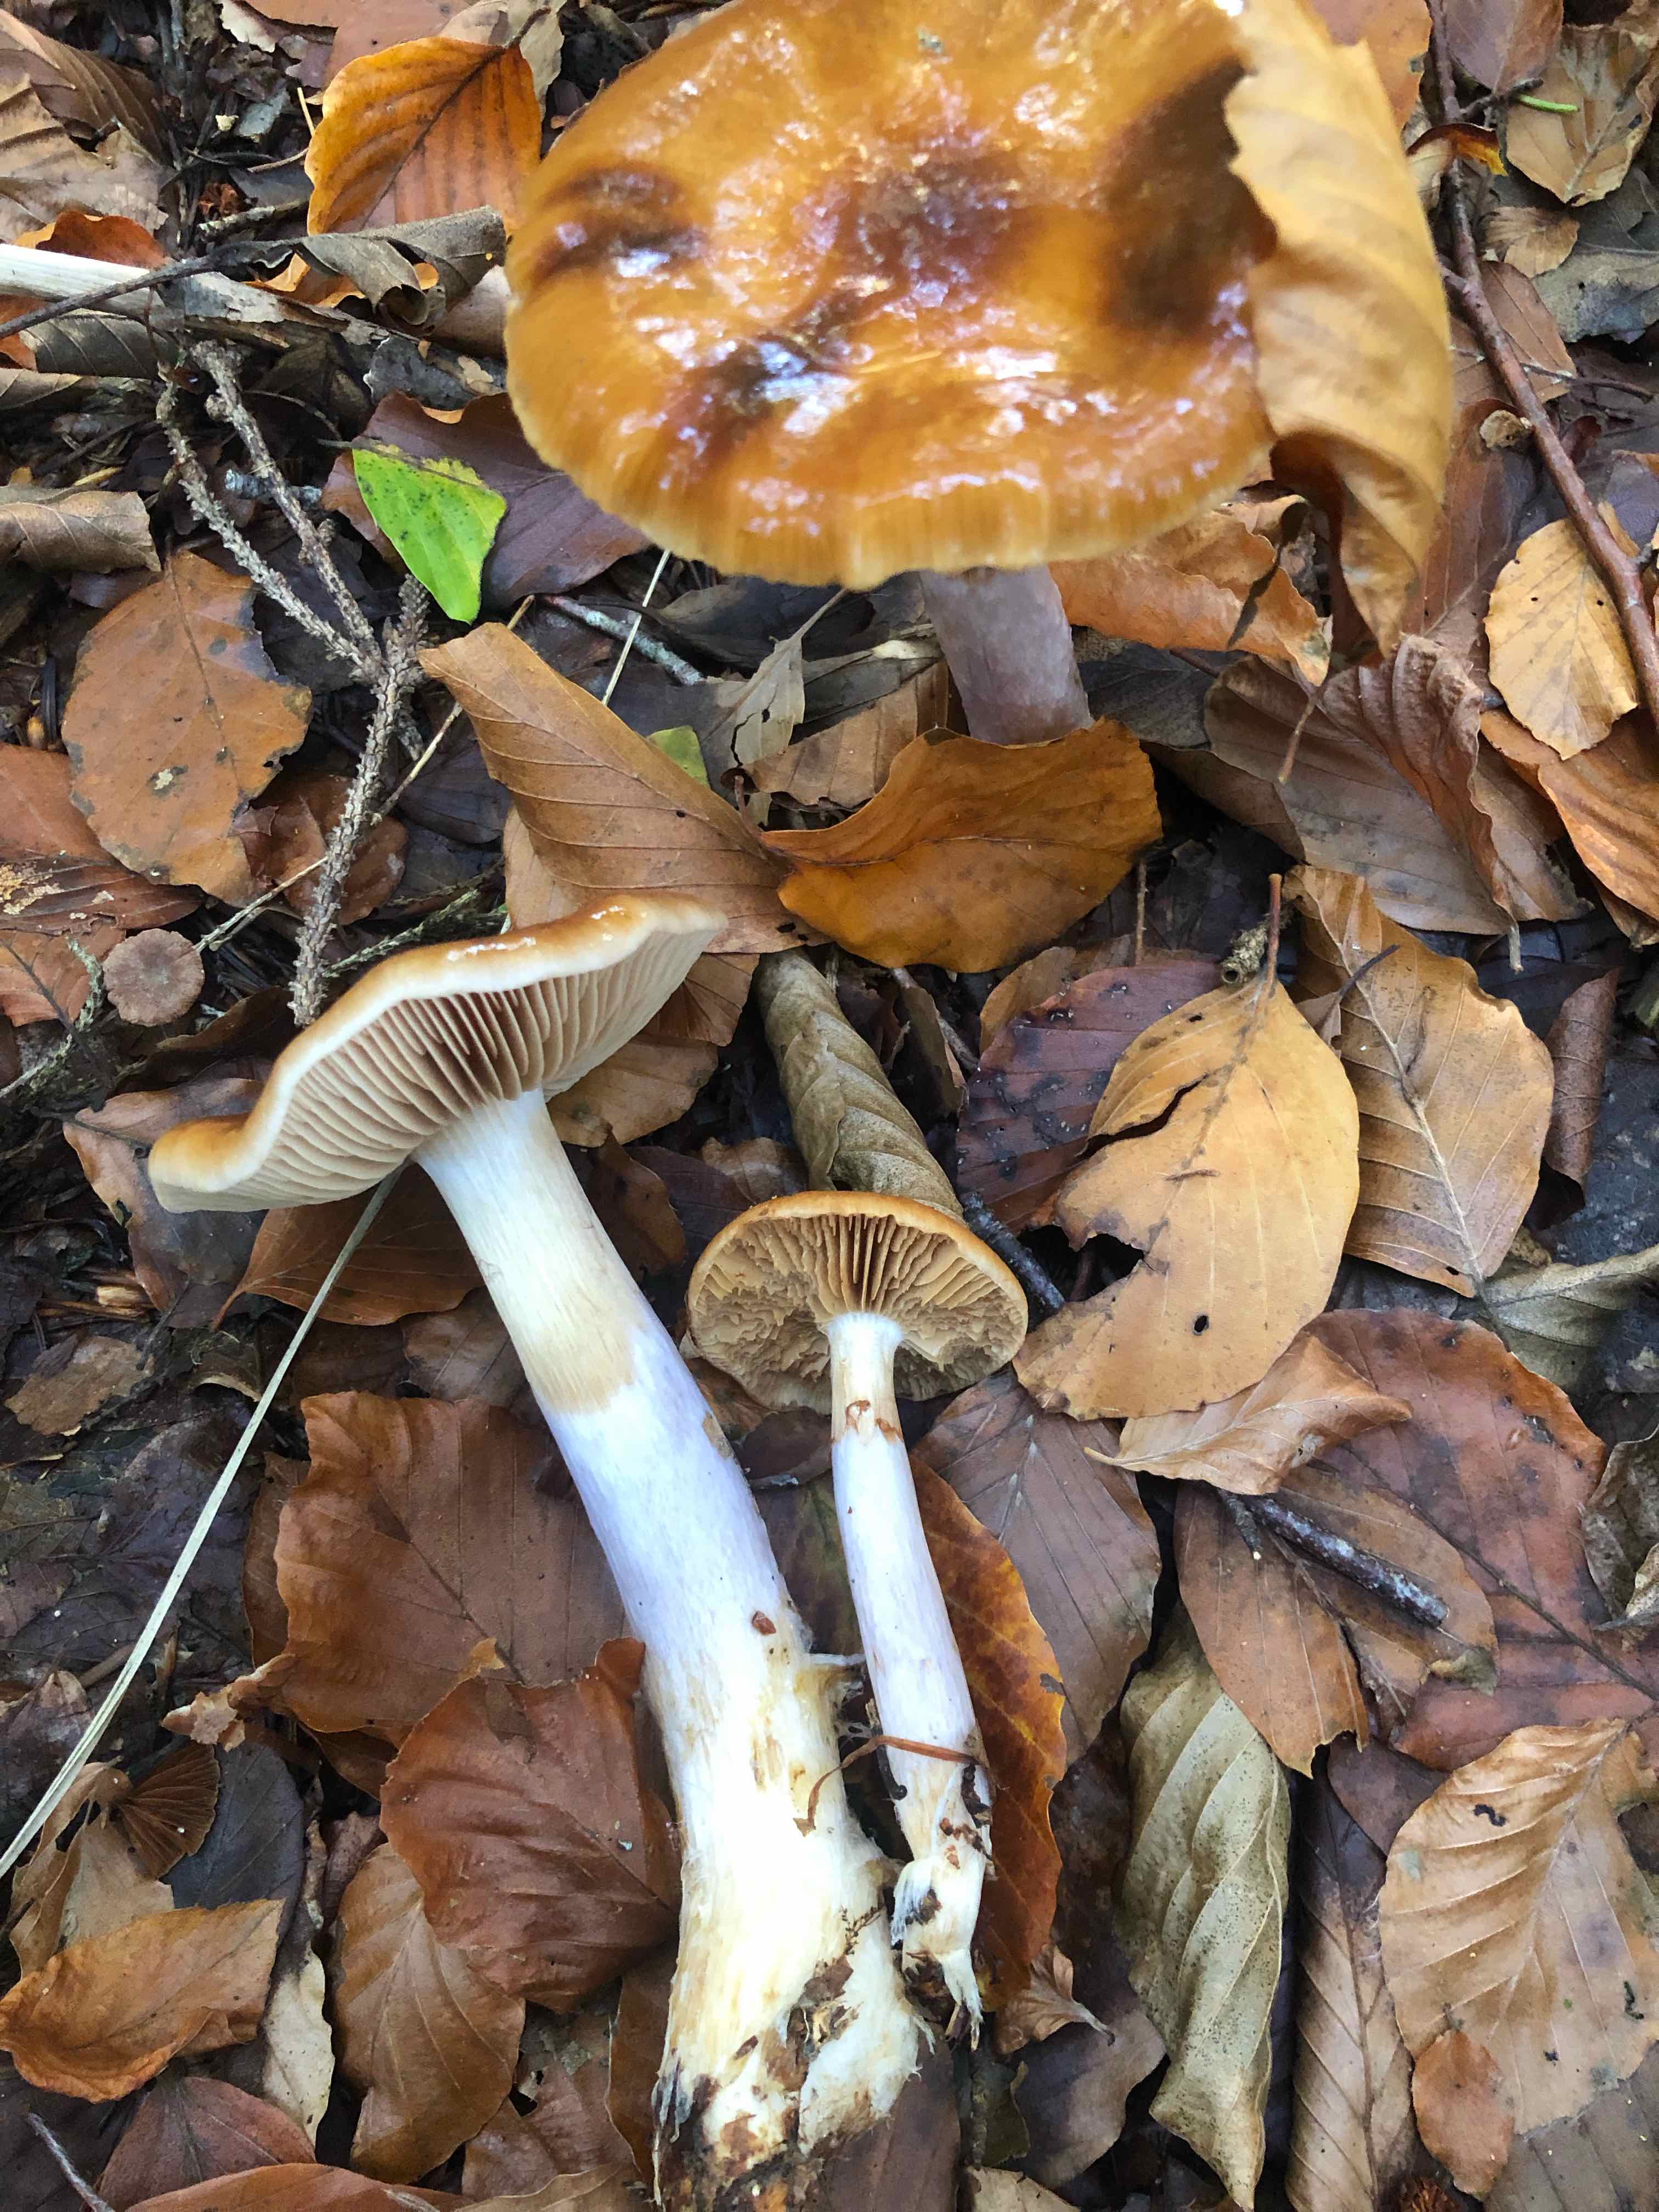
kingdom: Fungi
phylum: Basidiomycota
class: Agaricomycetes
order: Agaricales
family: Cortinariaceae
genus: Cortinarius
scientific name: Cortinarius
